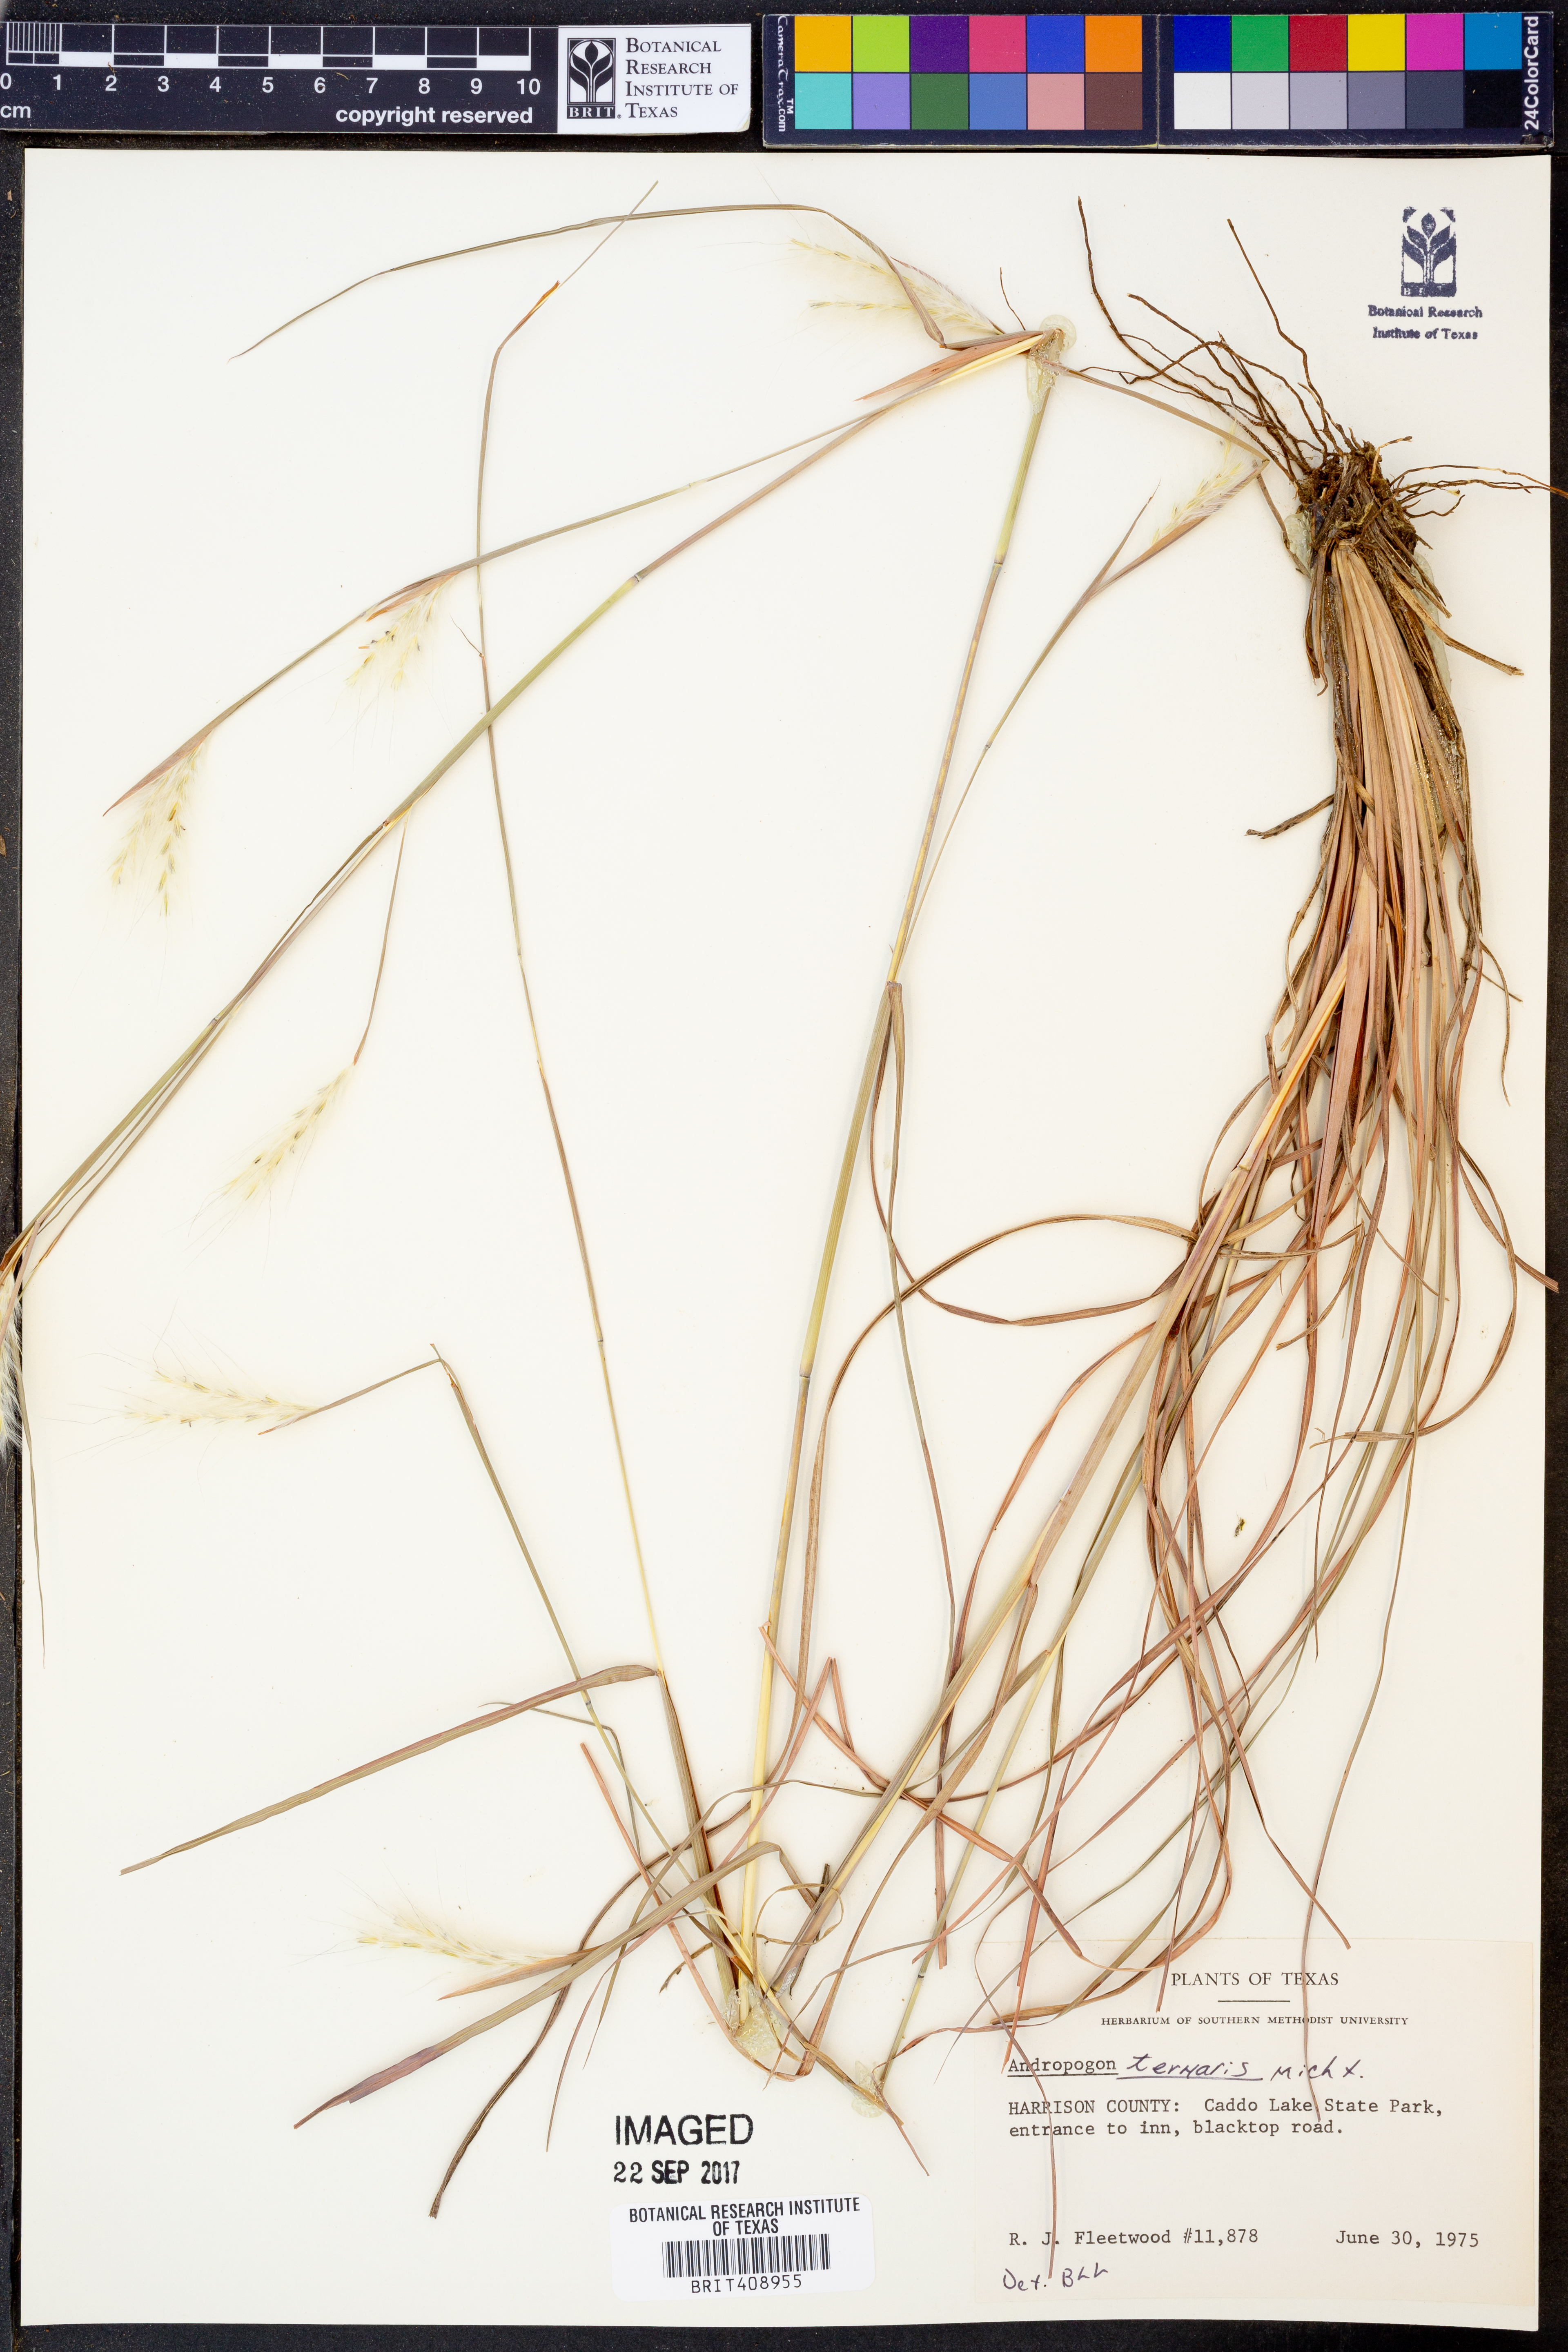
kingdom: Plantae
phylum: Tracheophyta
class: Liliopsida
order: Poales
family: Poaceae
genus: Andropogon
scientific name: Andropogon ternarius
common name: Split bluestem
